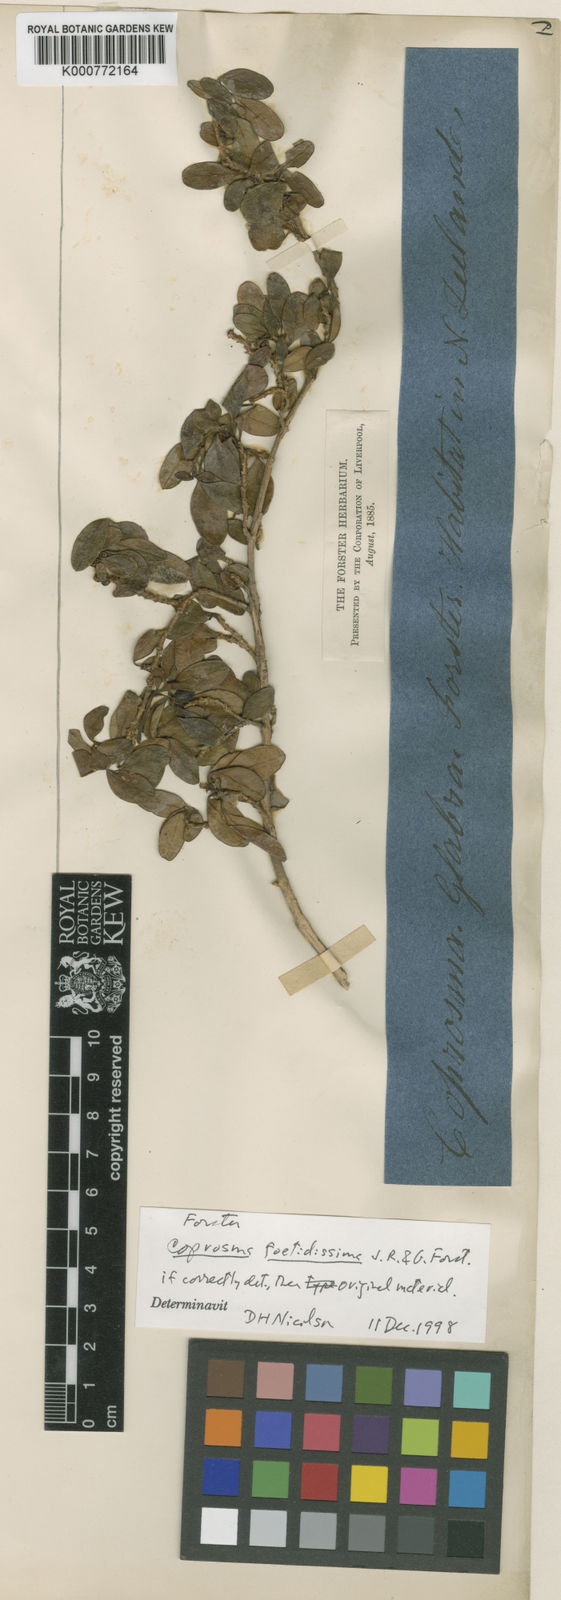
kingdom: Plantae
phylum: Tracheophyta
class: Magnoliopsida
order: Gentianales
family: Rubiaceae
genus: Coprosma
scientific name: Coprosma foetidissima
